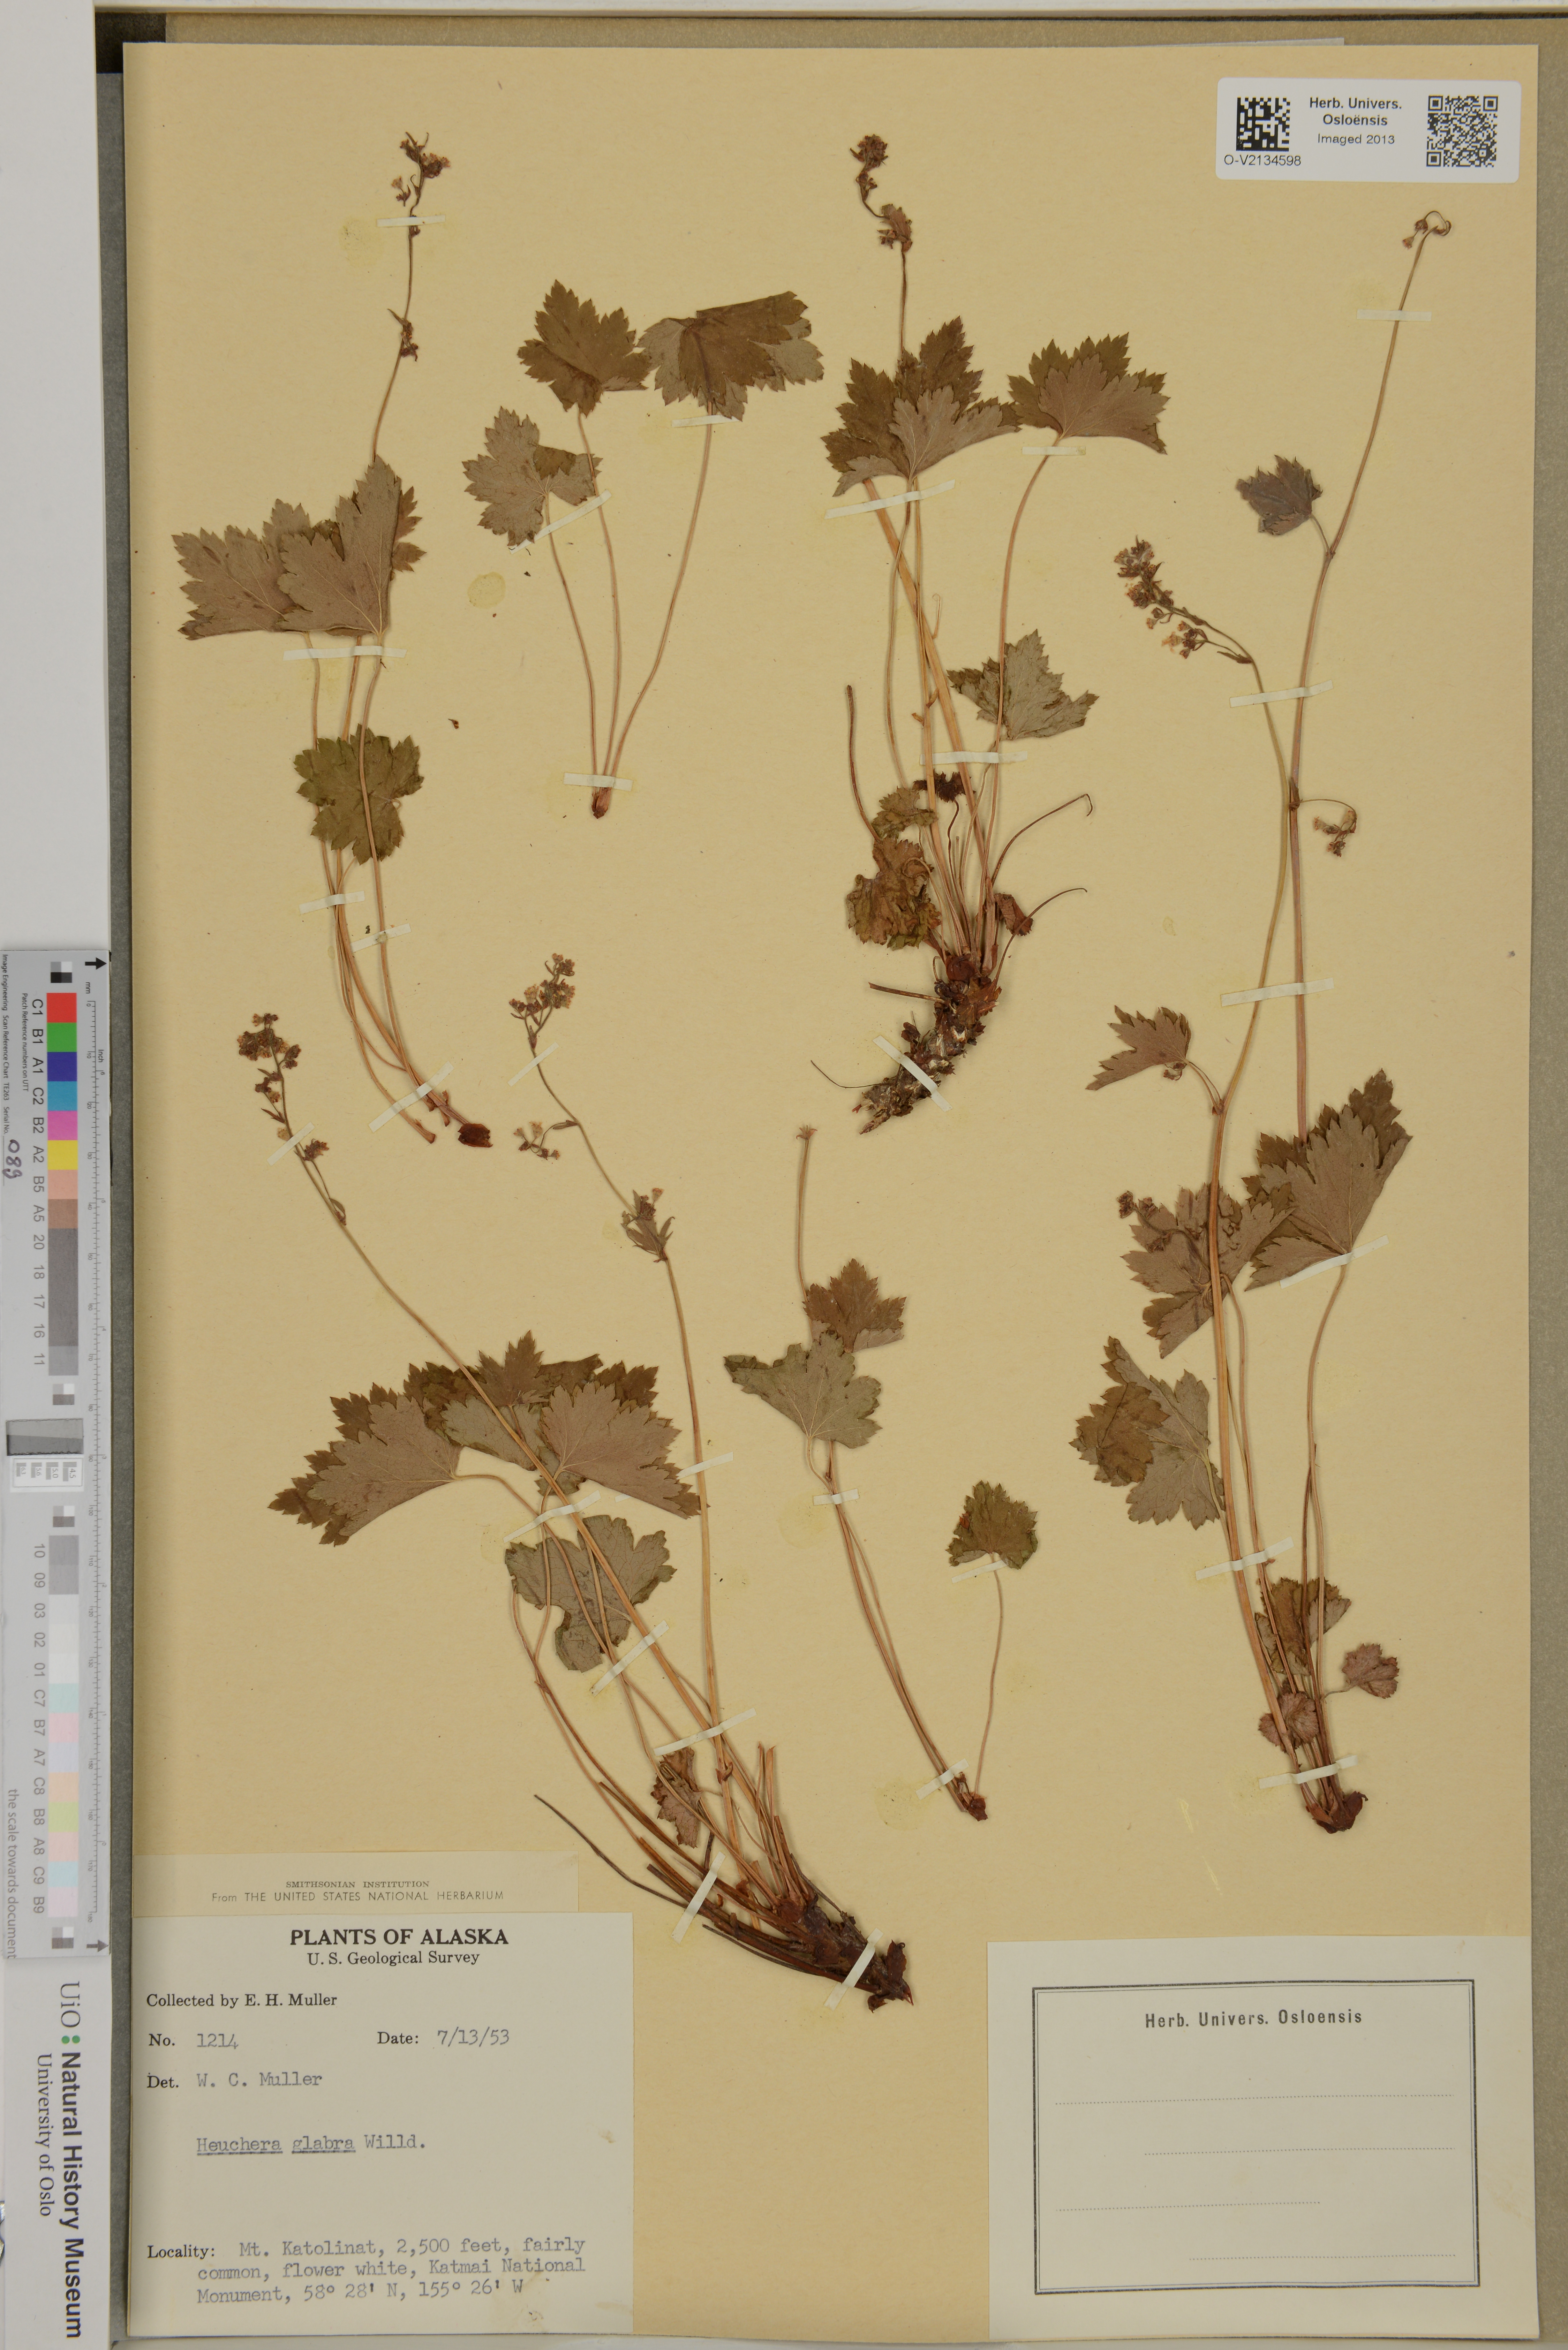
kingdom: Plantae
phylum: Tracheophyta
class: Magnoliopsida
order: Saxifragales
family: Saxifragaceae
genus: Heuchera
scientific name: Heuchera glabra
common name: Alpine alumroot
